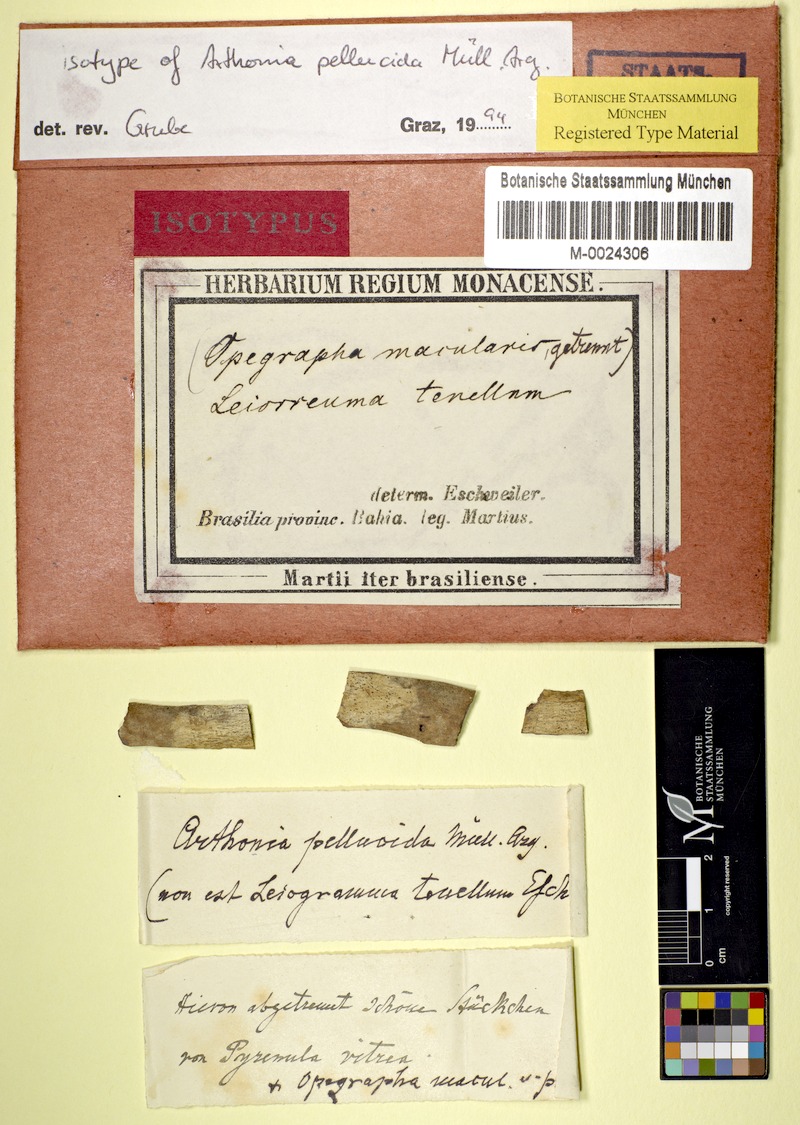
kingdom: Fungi
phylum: Ascomycota
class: Arthoniomycetes
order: Arthoniales
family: Arthoniaceae
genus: Arthonia
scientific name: Arthonia
